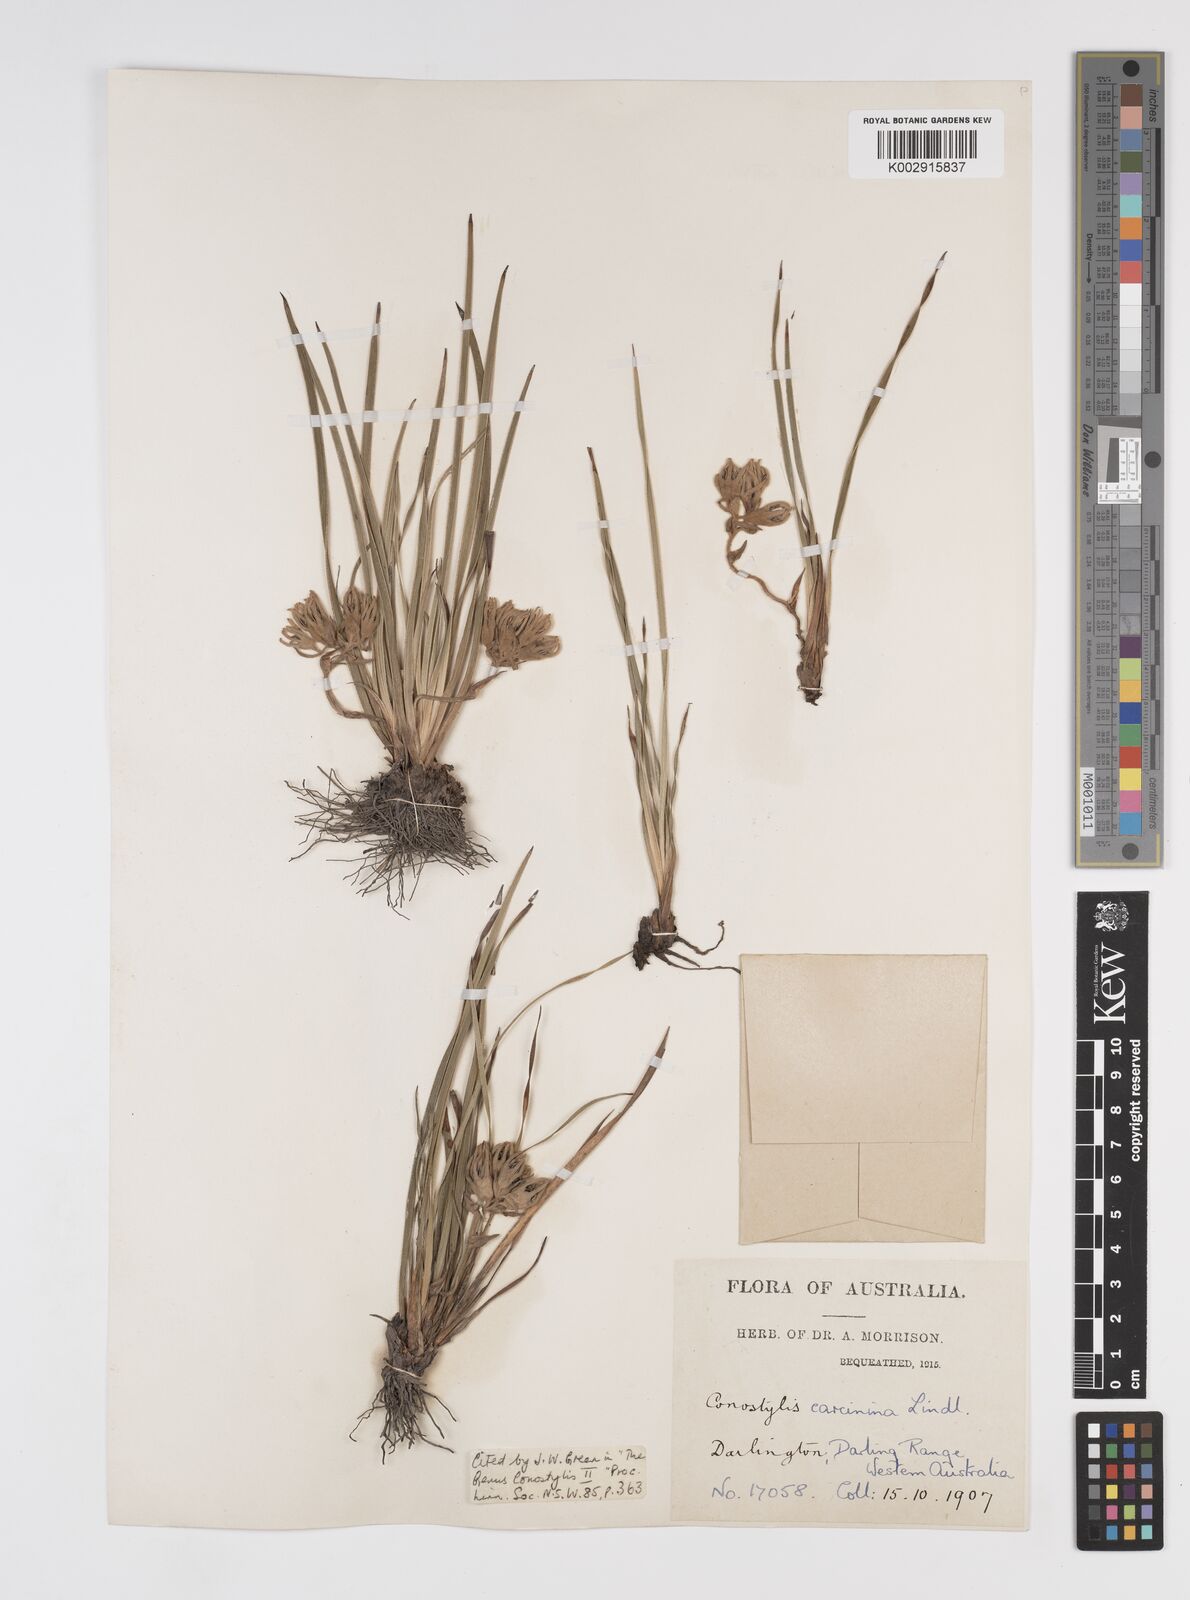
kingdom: Plantae
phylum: Tracheophyta
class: Liliopsida
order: Commelinales
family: Haemodoraceae
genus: Conostylis
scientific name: Conostylis caricina
